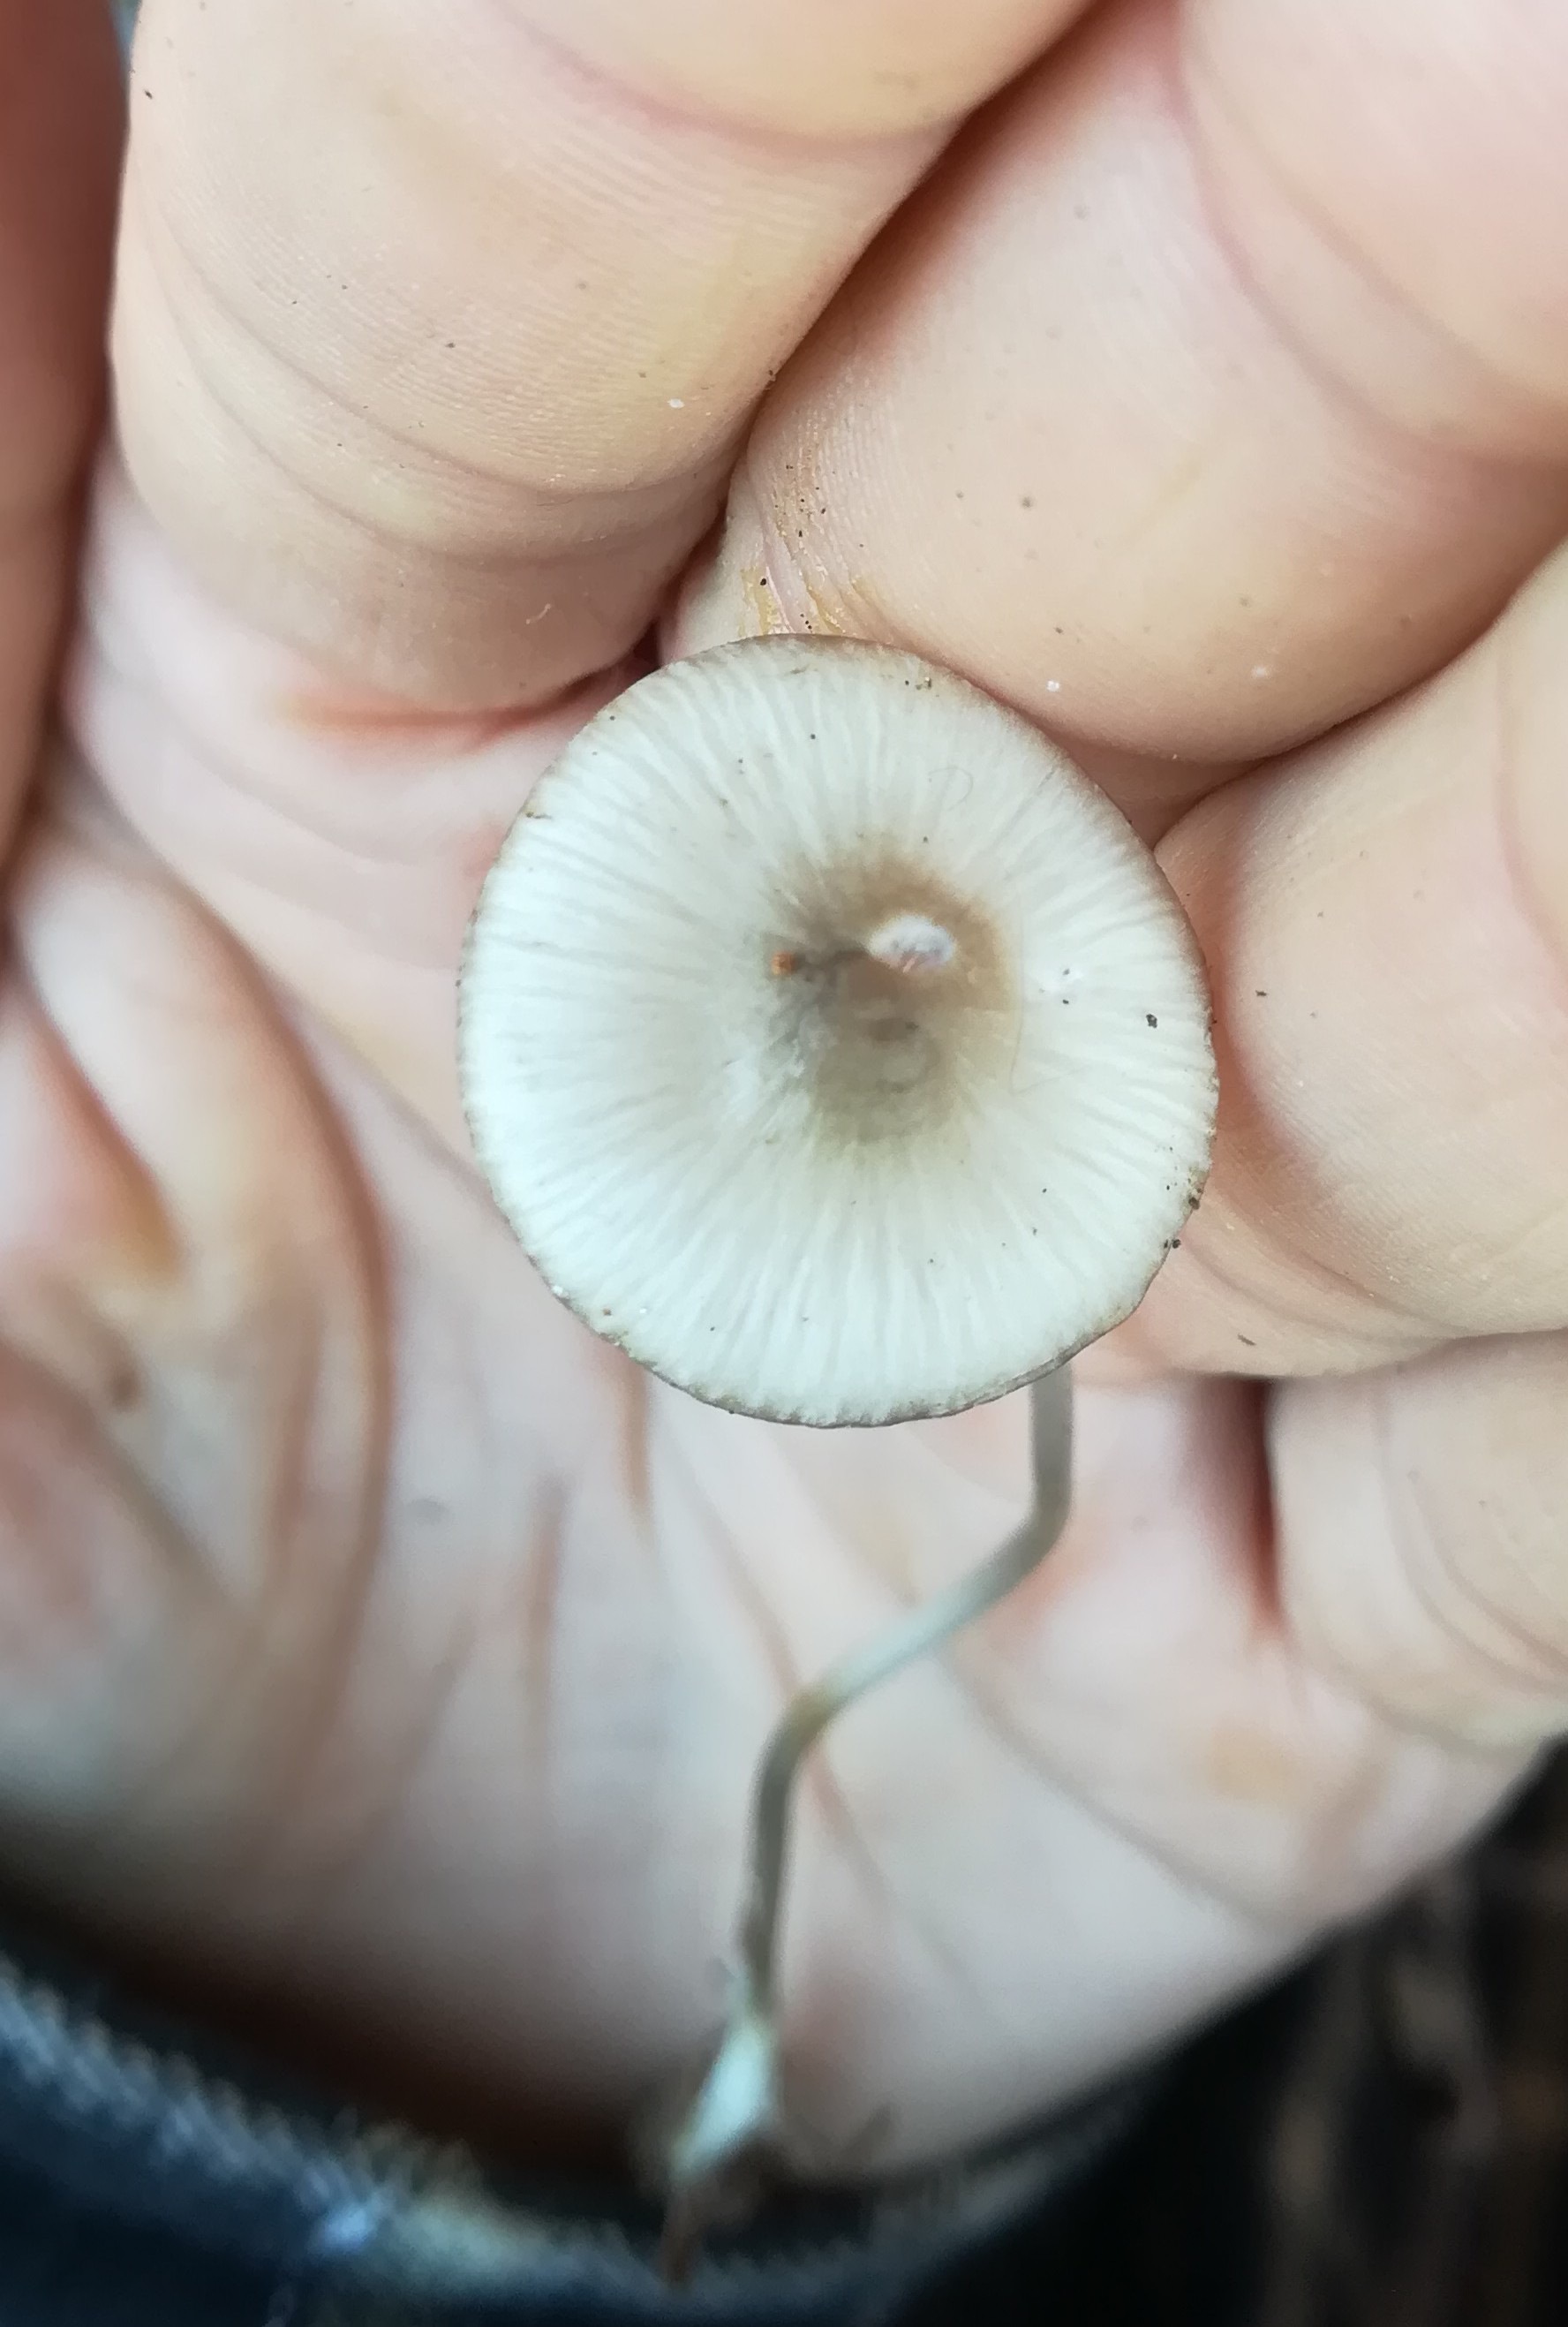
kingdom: Fungi
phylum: Basidiomycota
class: Agaricomycetes
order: Agaricales
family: Mycenaceae
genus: Mycena
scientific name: Mycena vitilis
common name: blankstokket huesvamp
